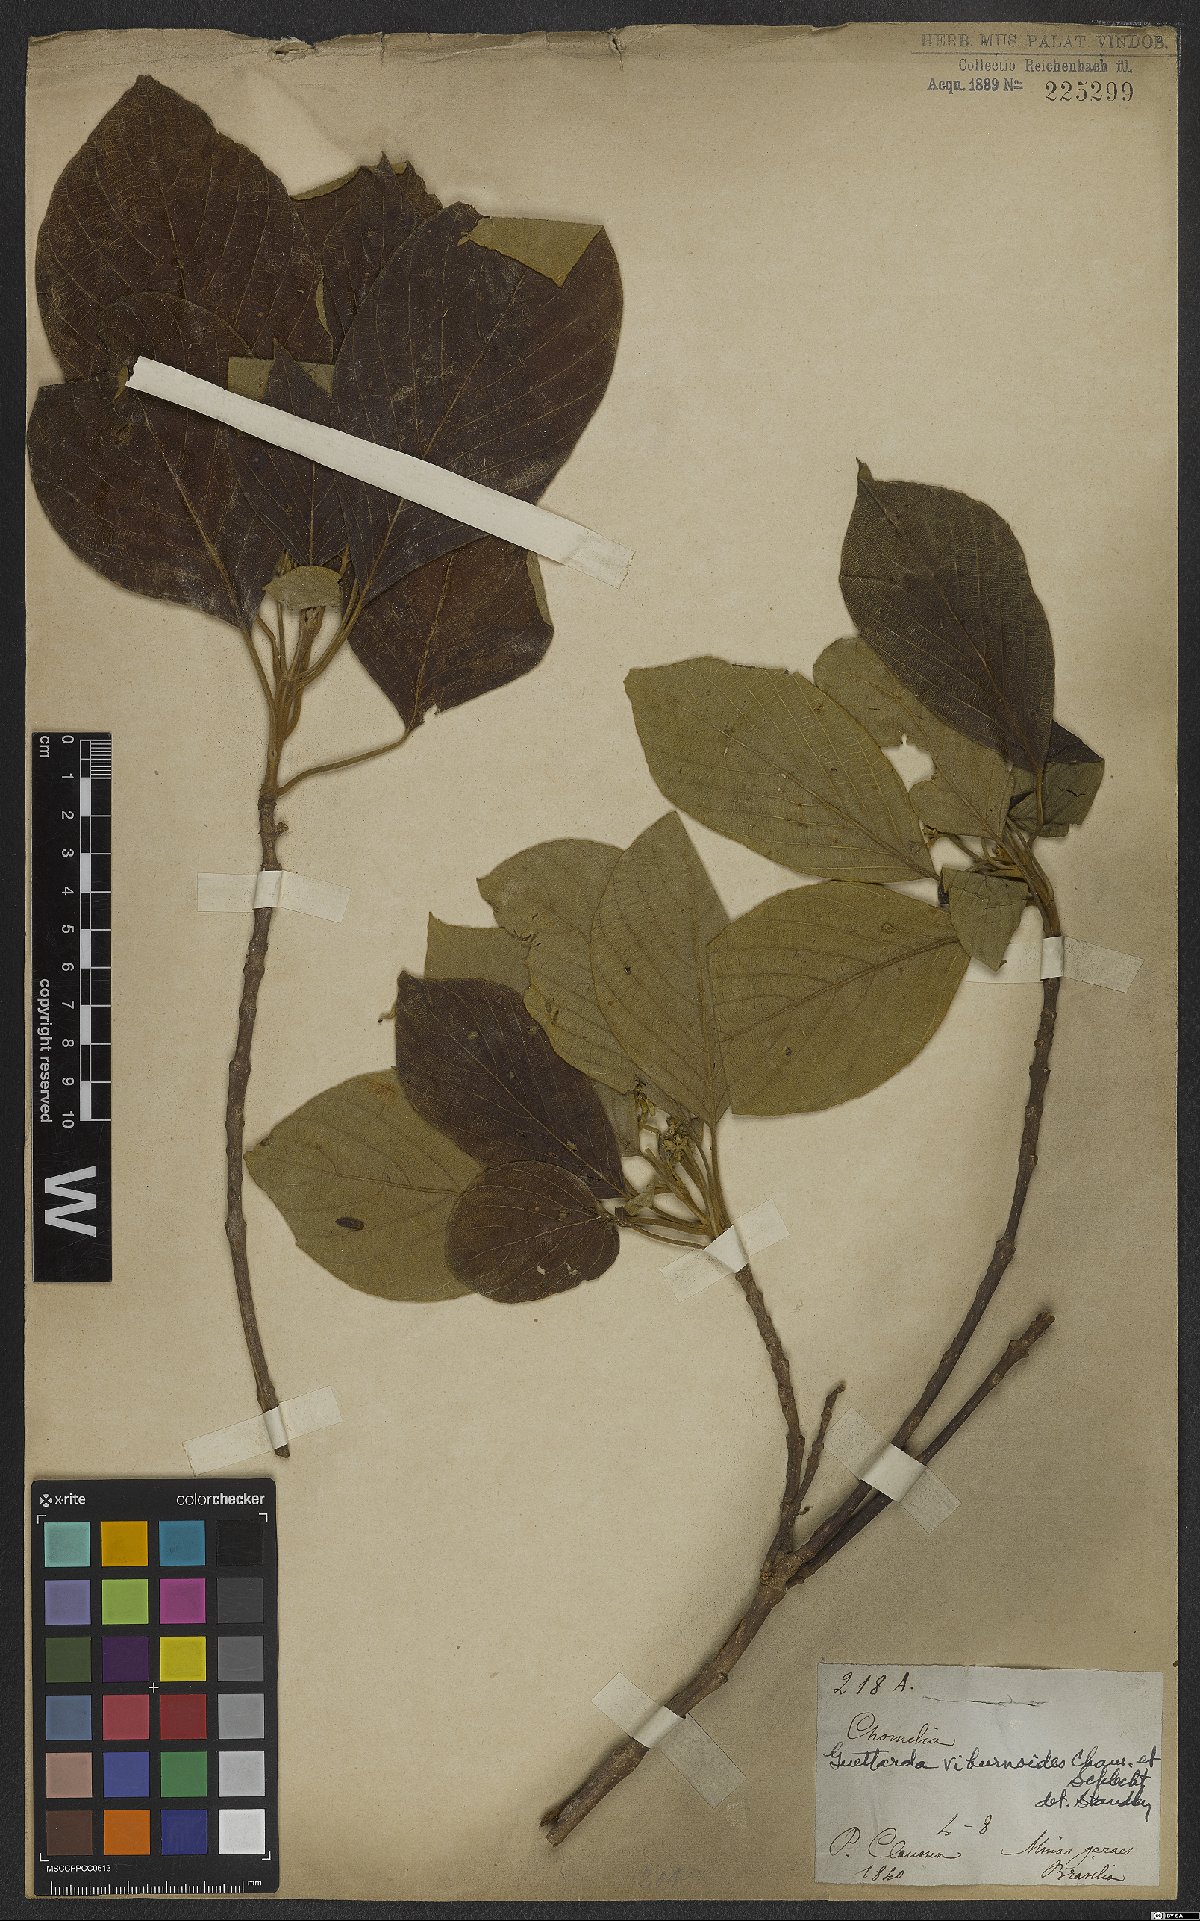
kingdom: Plantae
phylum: Tracheophyta
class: Magnoliopsida
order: Gentianales
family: Rubiaceae
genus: Guettarda
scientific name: Guettarda viburnoides
